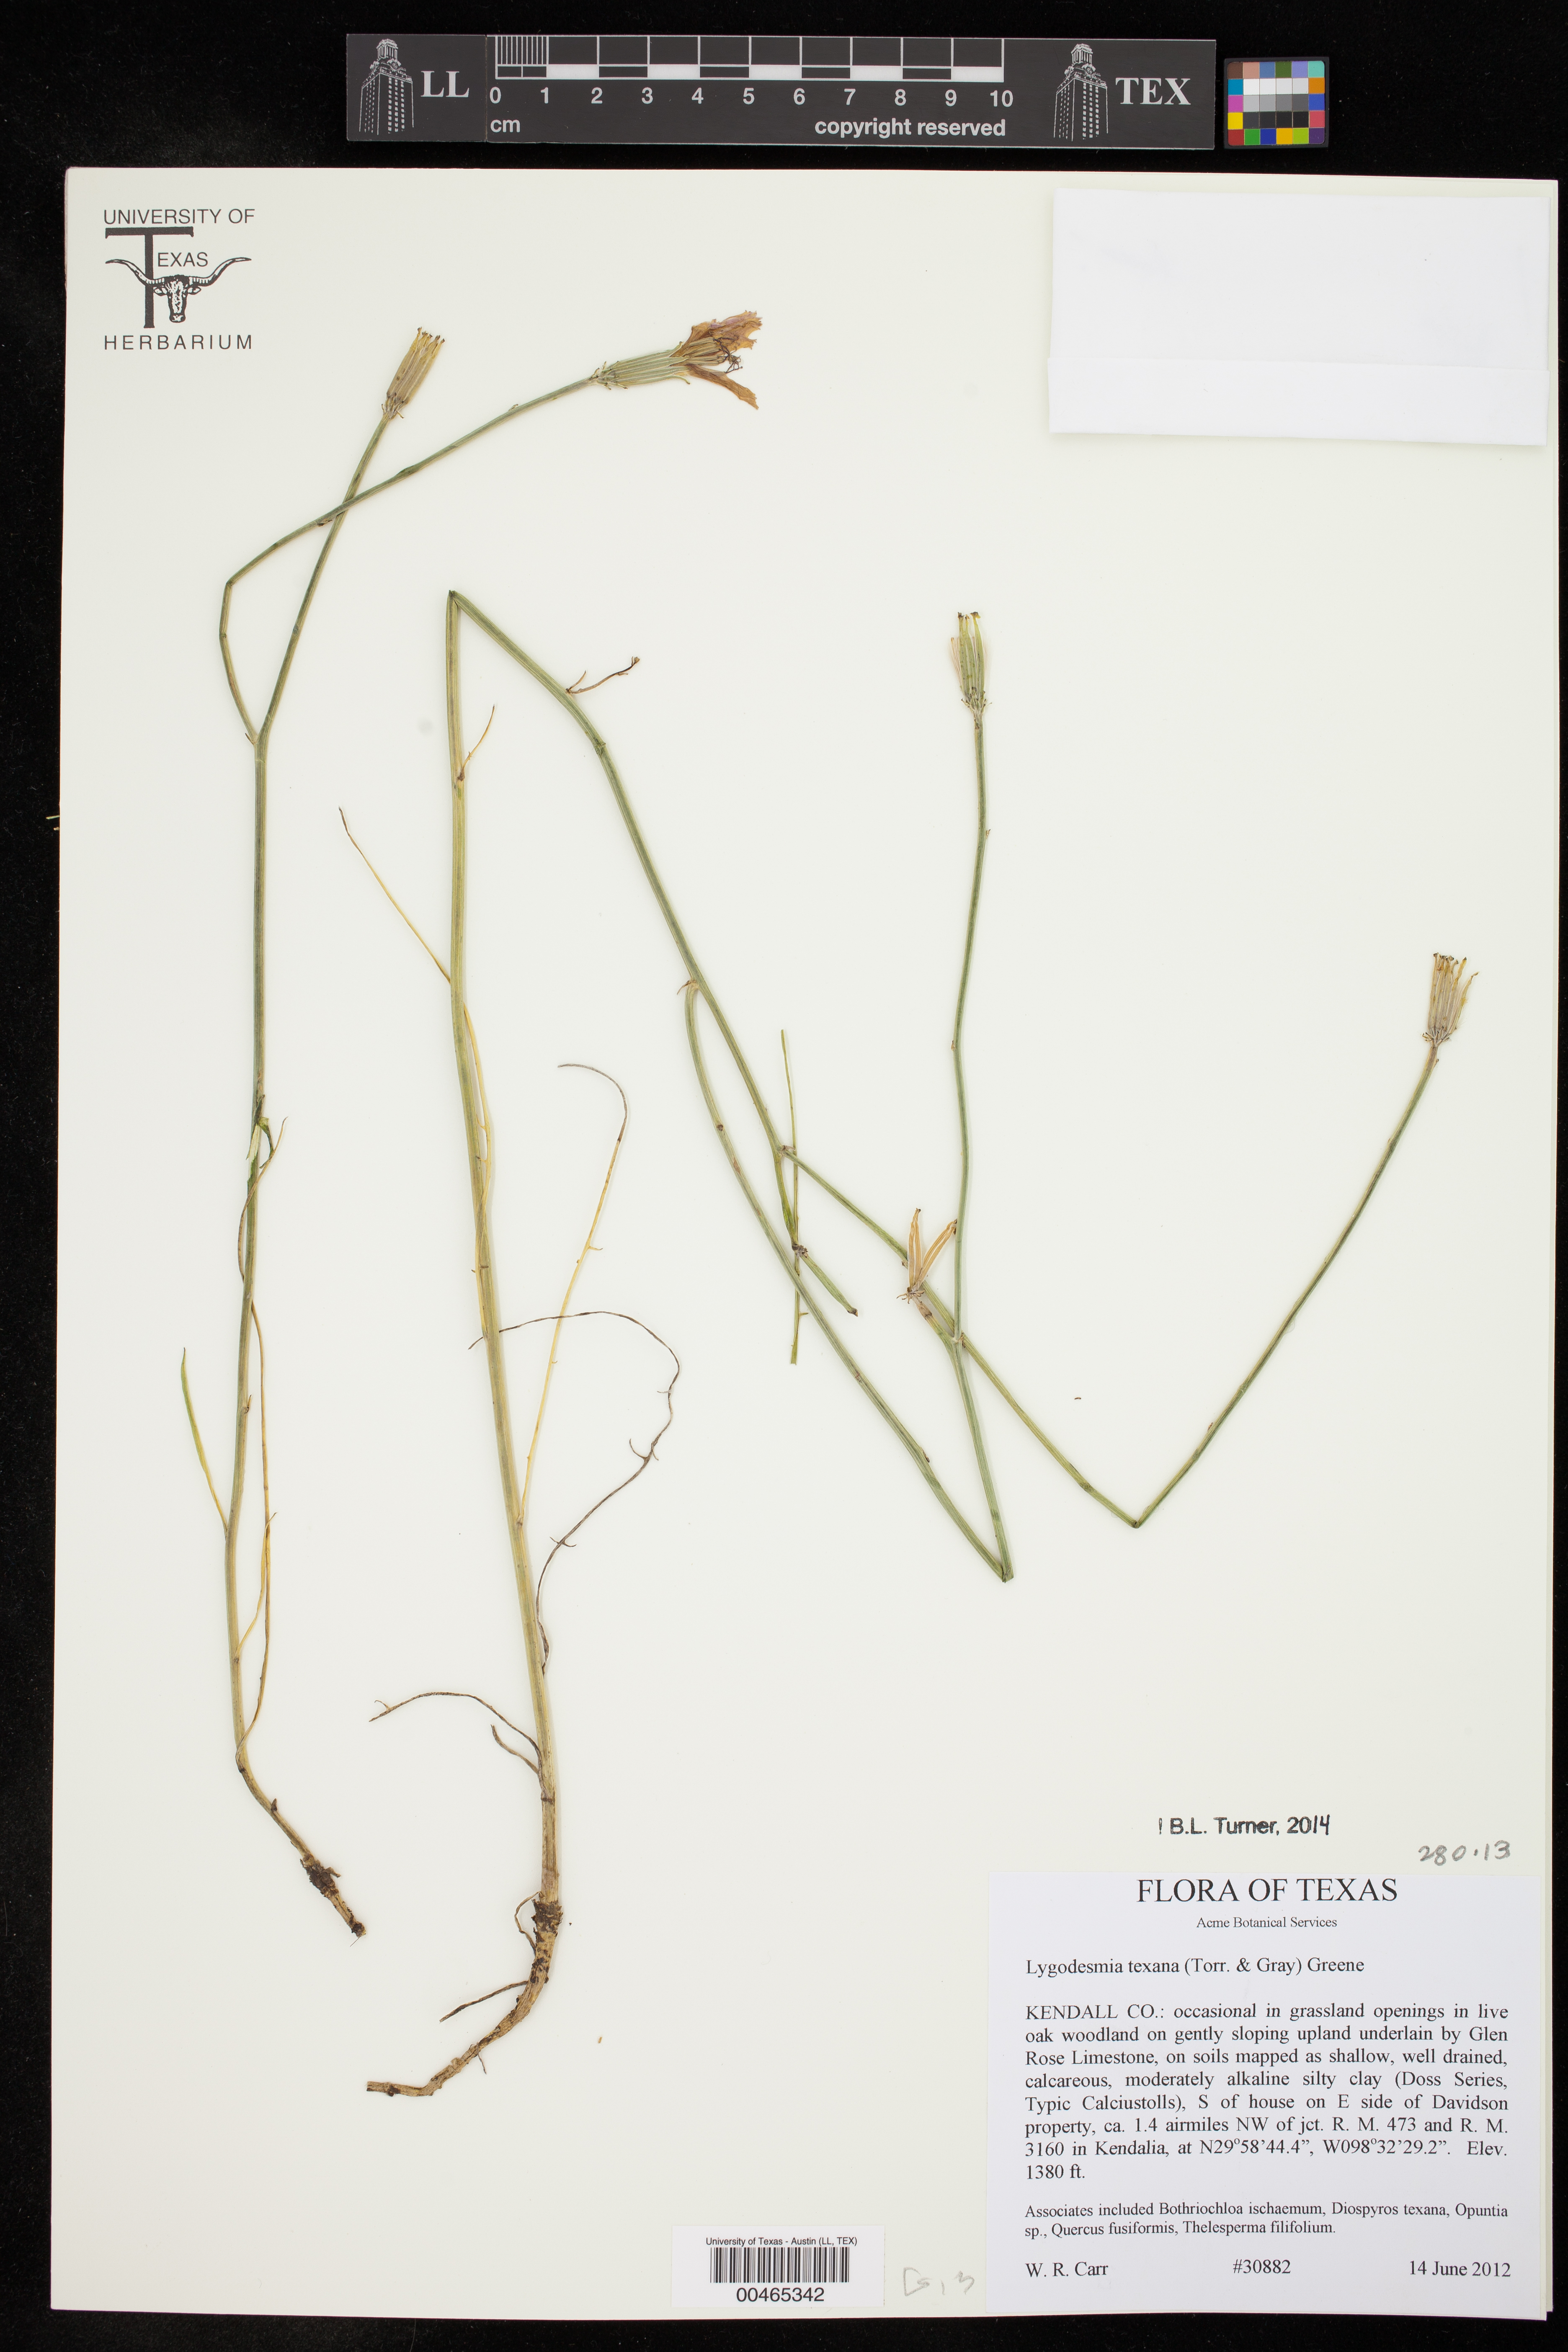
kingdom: Plantae
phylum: Tracheophyta
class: Magnoliopsida
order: Asterales
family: Asteraceae
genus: Lygodesmia
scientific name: Lygodesmia texana
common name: Texas skeleton-plant
